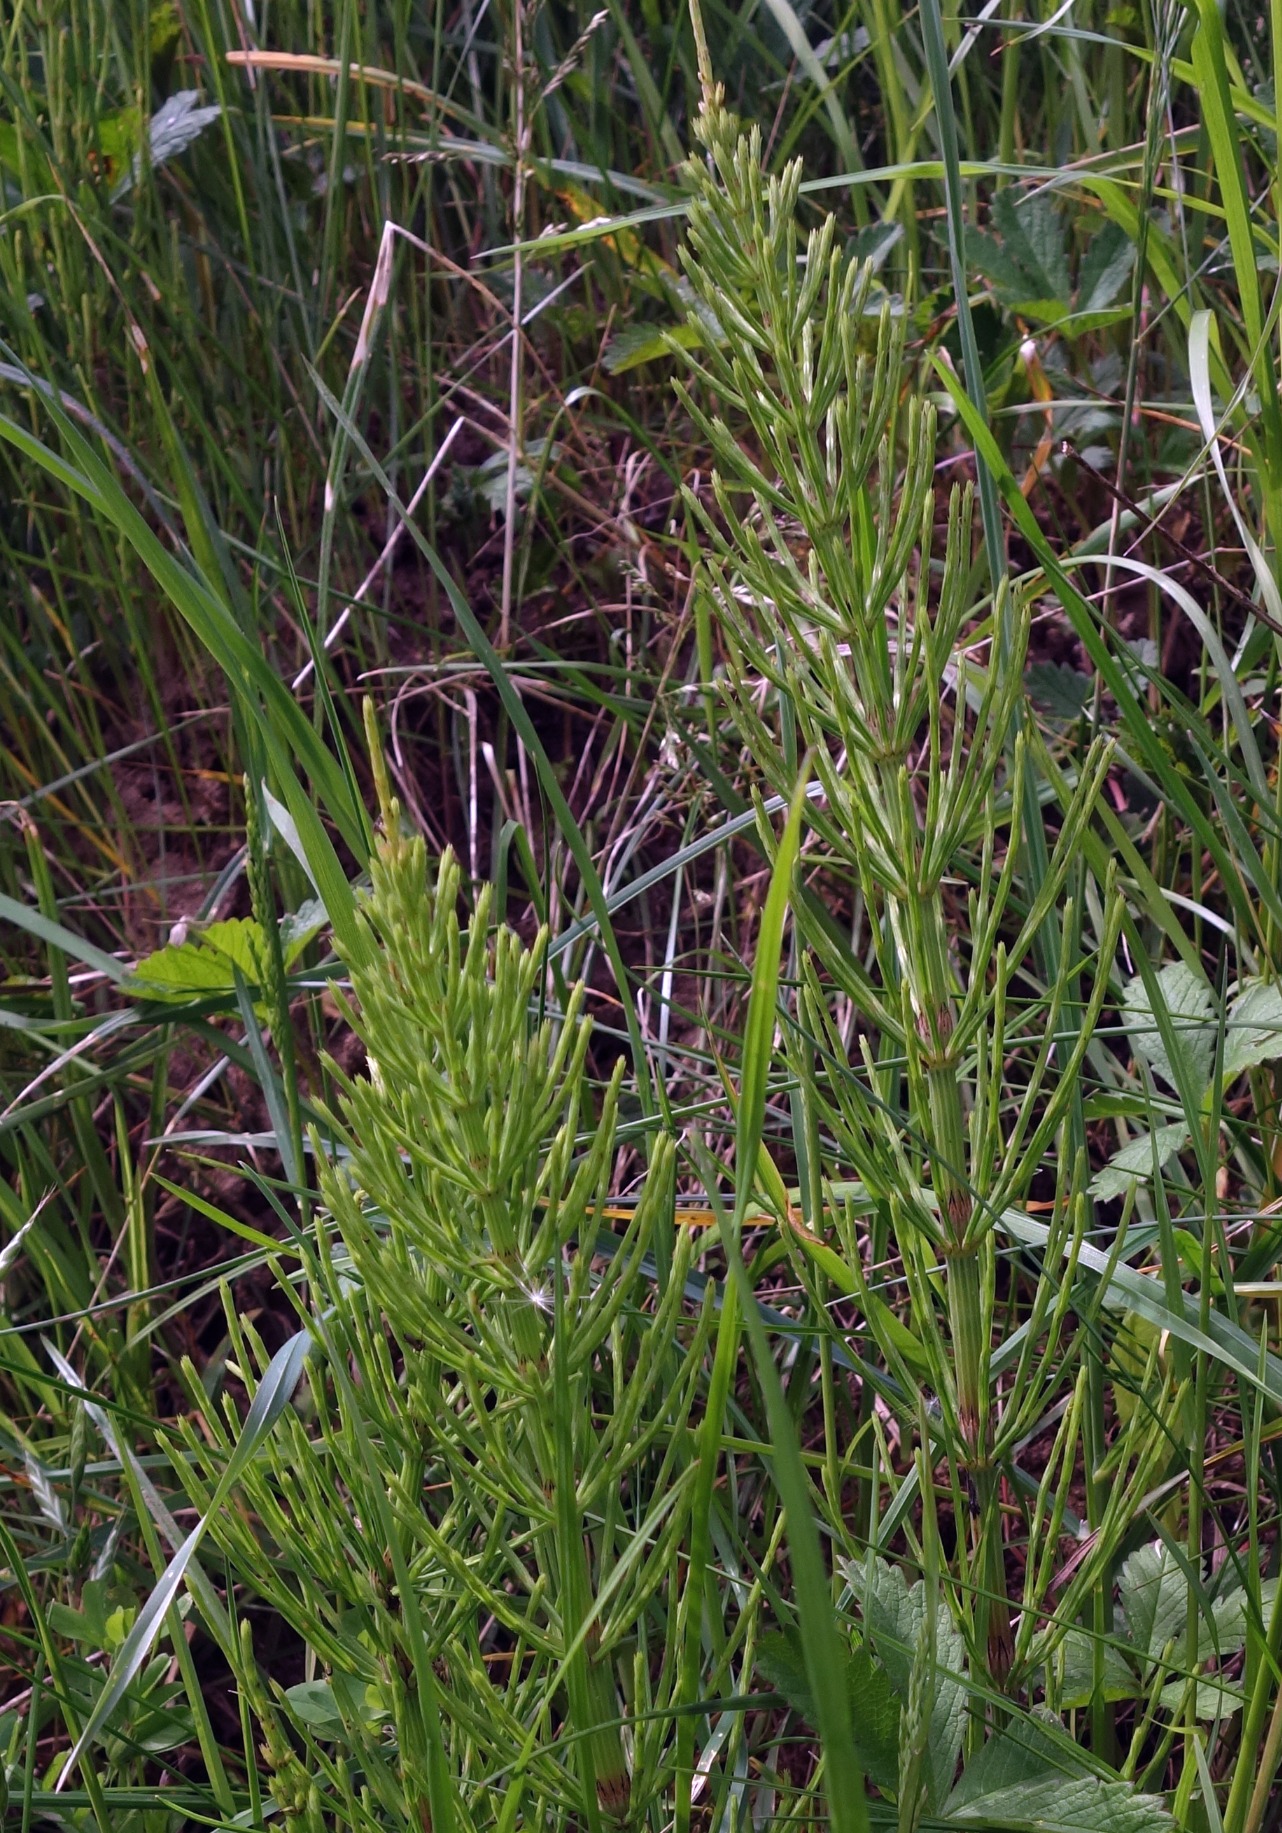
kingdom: Plantae
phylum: Tracheophyta
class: Polypodiopsida
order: Equisetales
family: Equisetaceae
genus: Equisetum
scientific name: Equisetum arvense
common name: Ager-padderok
